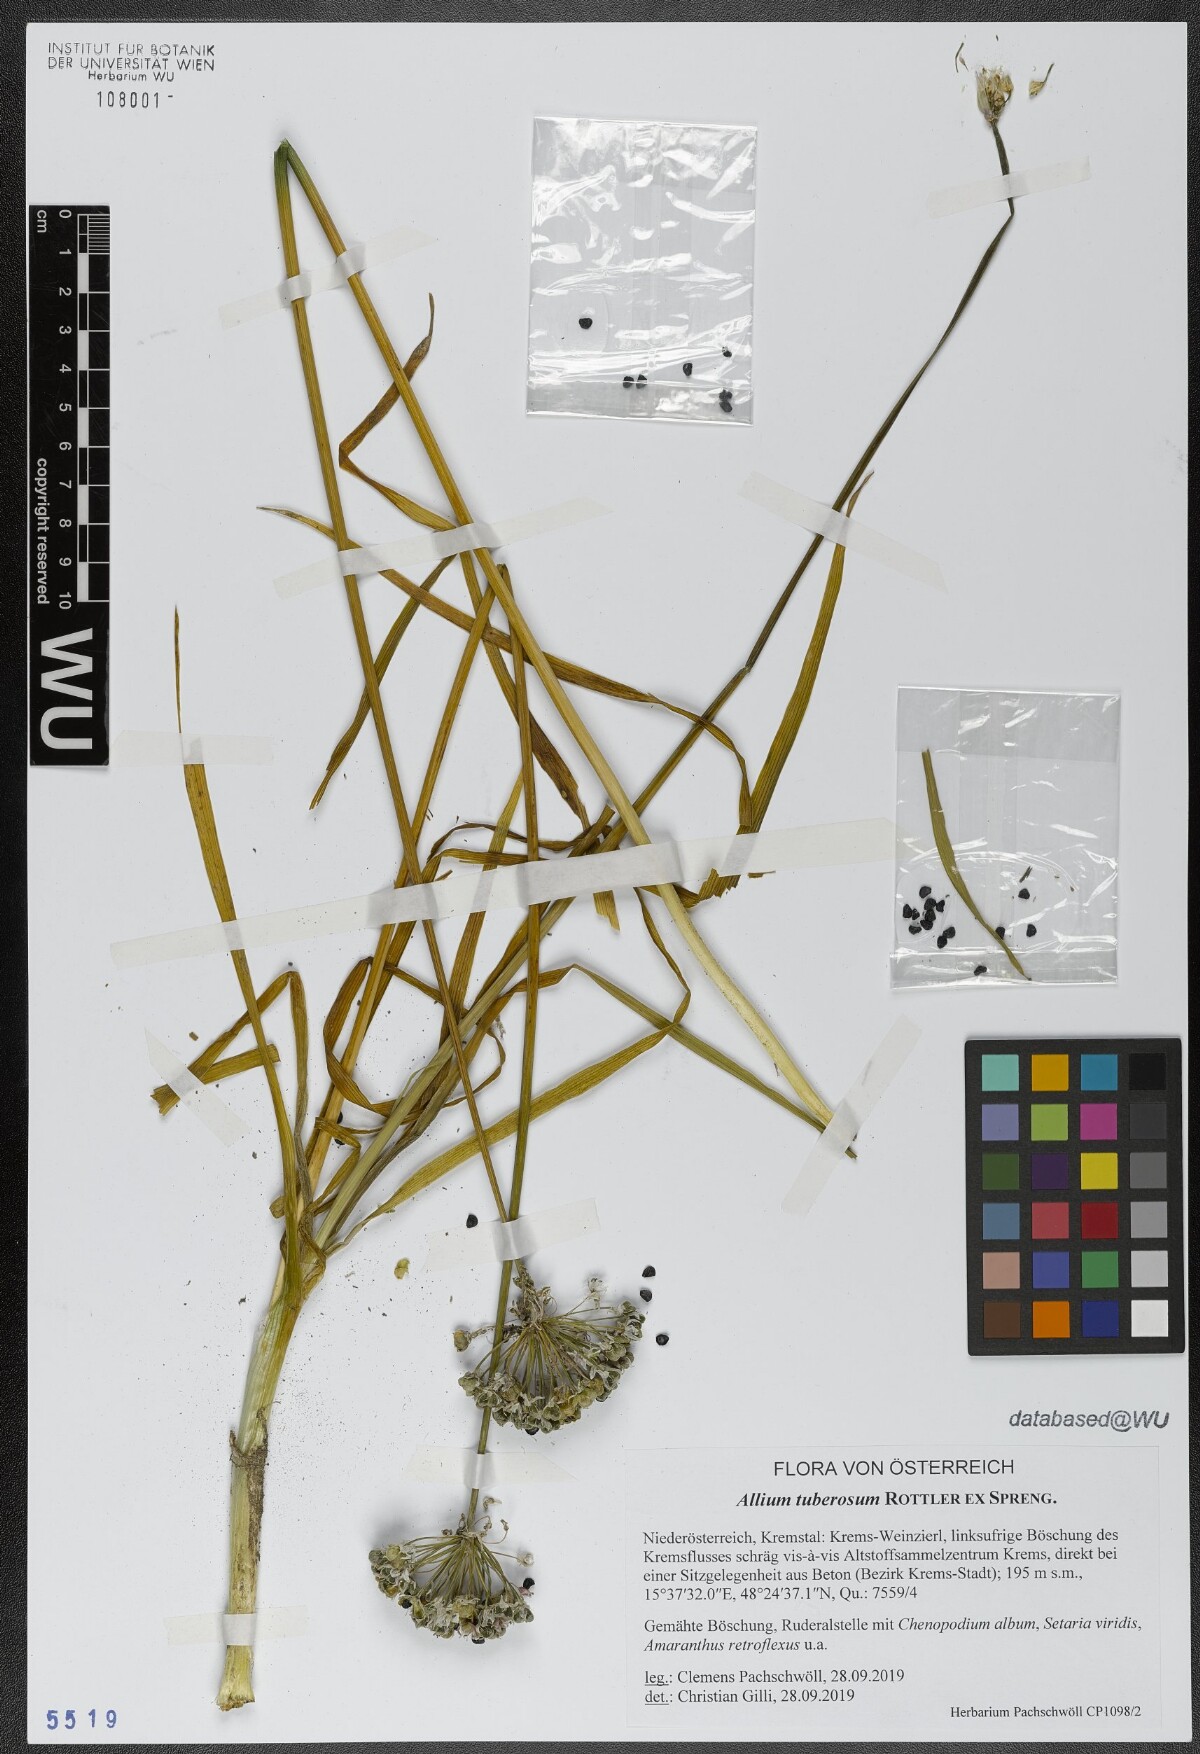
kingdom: Plantae
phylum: Tracheophyta
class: Liliopsida
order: Asparagales
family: Amaryllidaceae
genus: Allium
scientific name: Allium tuberosum
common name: Chinese chives
